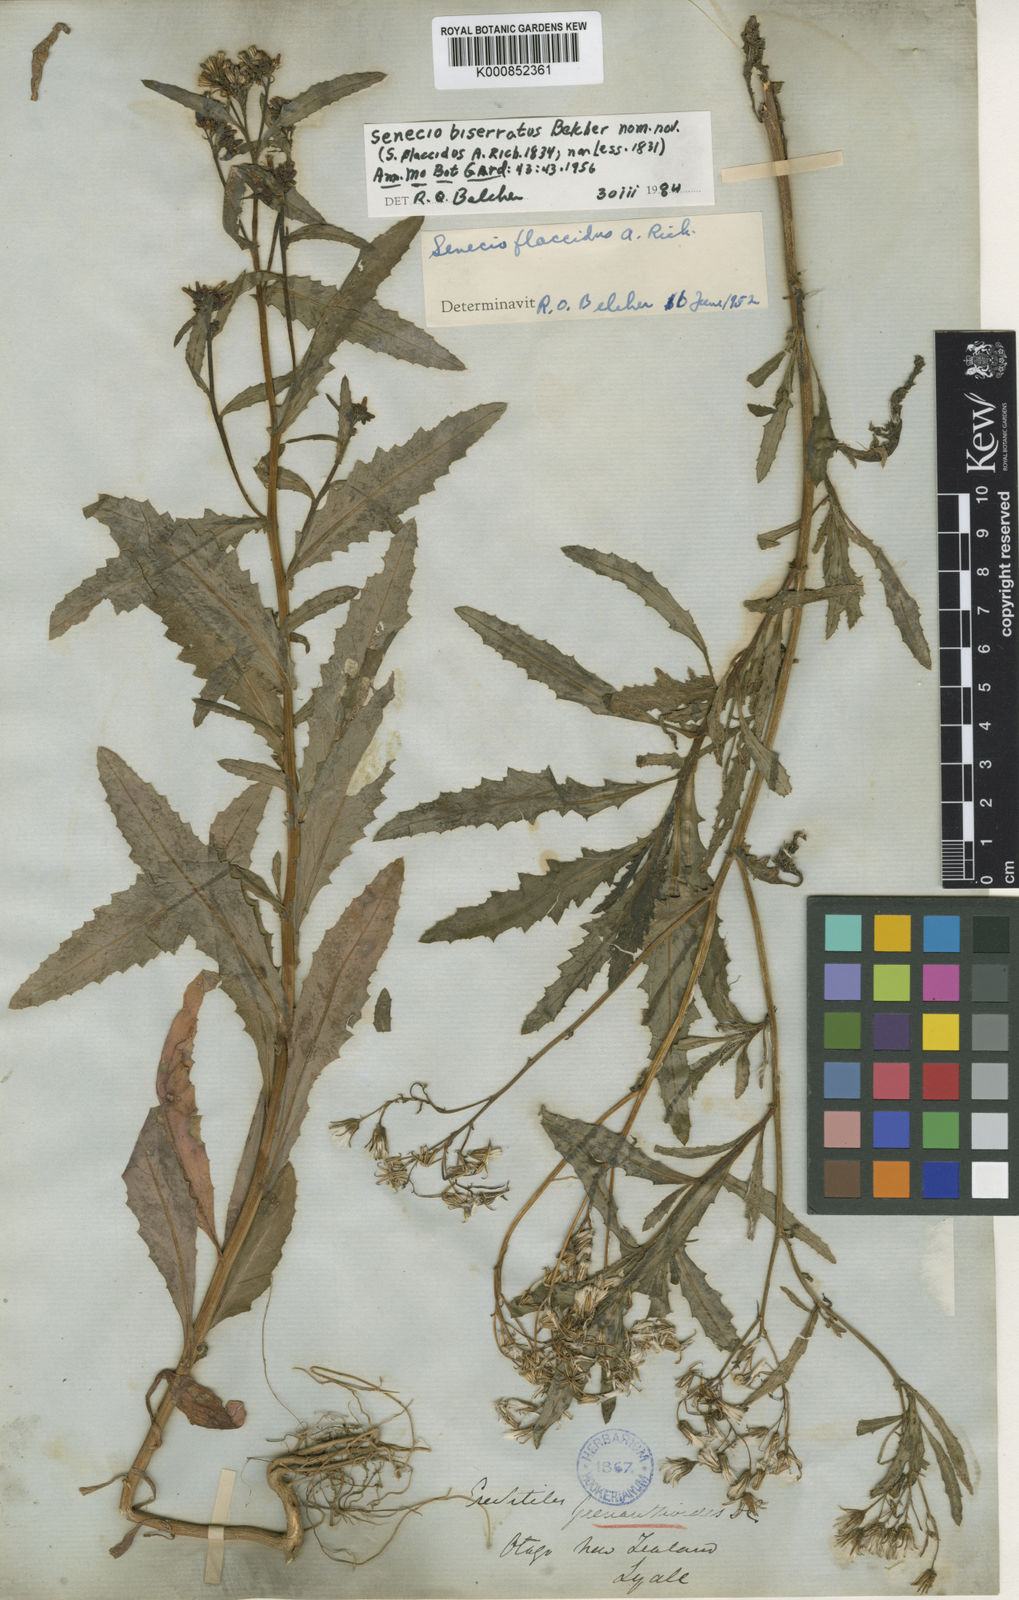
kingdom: Plantae
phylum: Tracheophyta
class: Magnoliopsida
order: Asterales
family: Asteraceae
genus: Senecio
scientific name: Senecio biserratus
